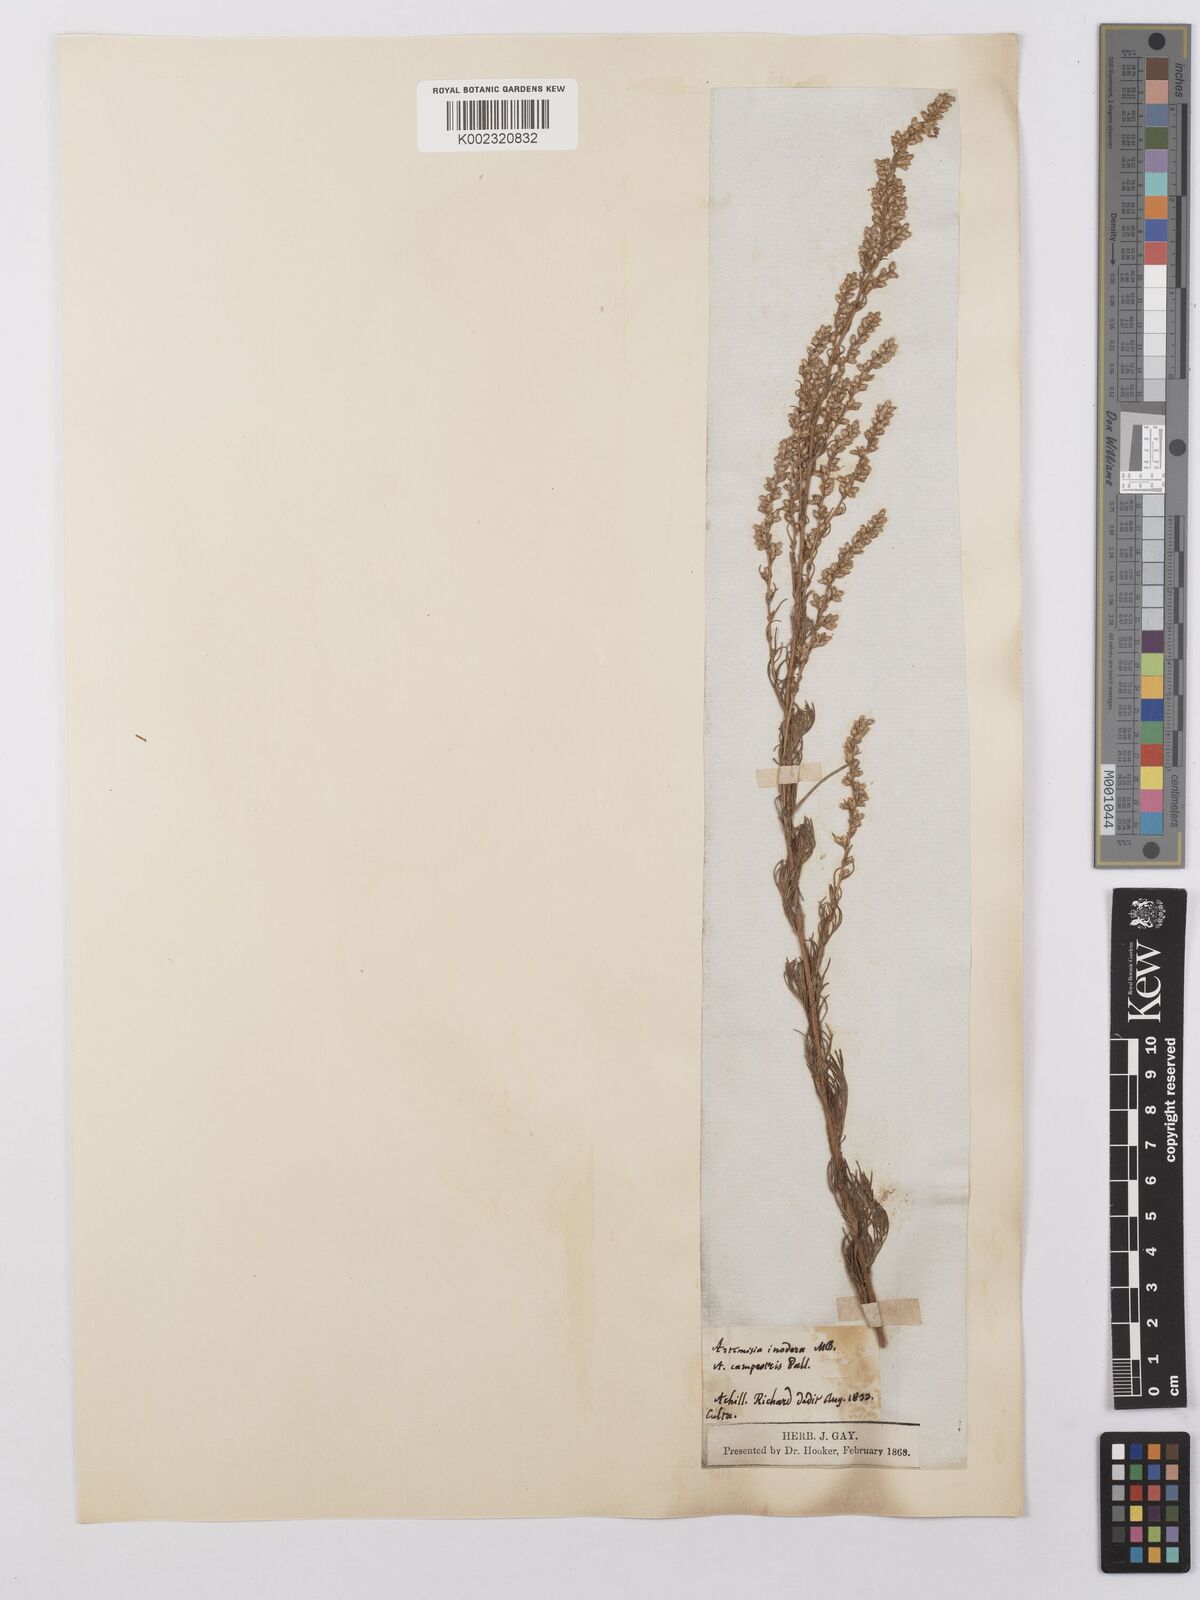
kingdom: Plantae
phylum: Tracheophyta
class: Magnoliopsida
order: Asterales
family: Asteraceae
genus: Artemisia
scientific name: Artemisia marschalliana
